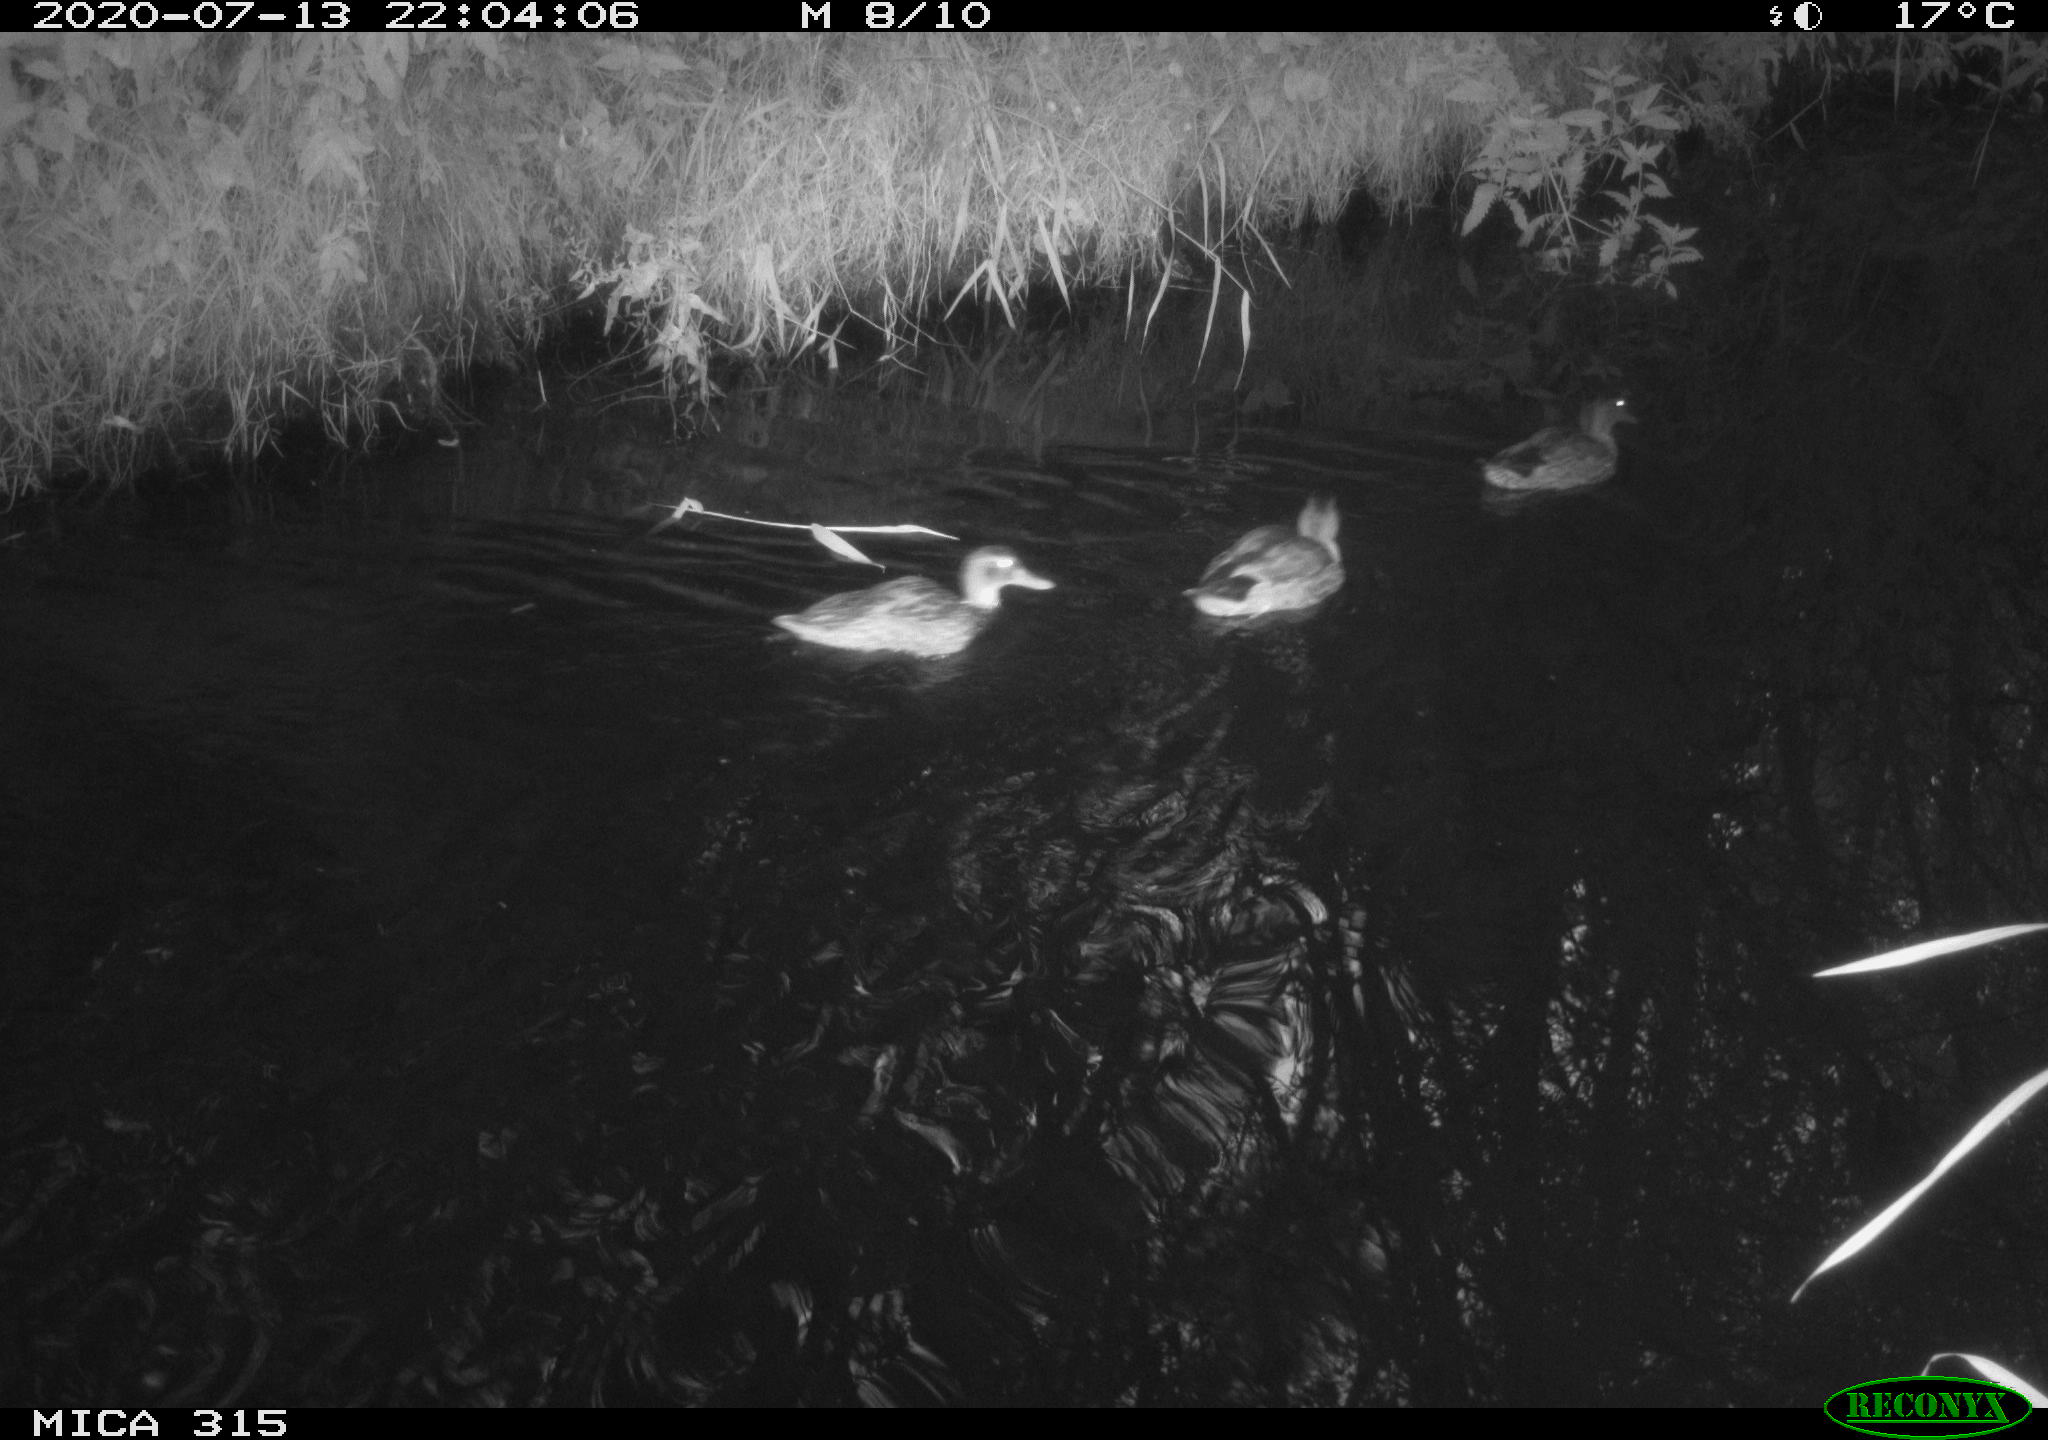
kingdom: Animalia
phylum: Chordata
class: Aves
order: Anseriformes
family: Anatidae
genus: Anas
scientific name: Anas platyrhynchos
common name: Mallard
